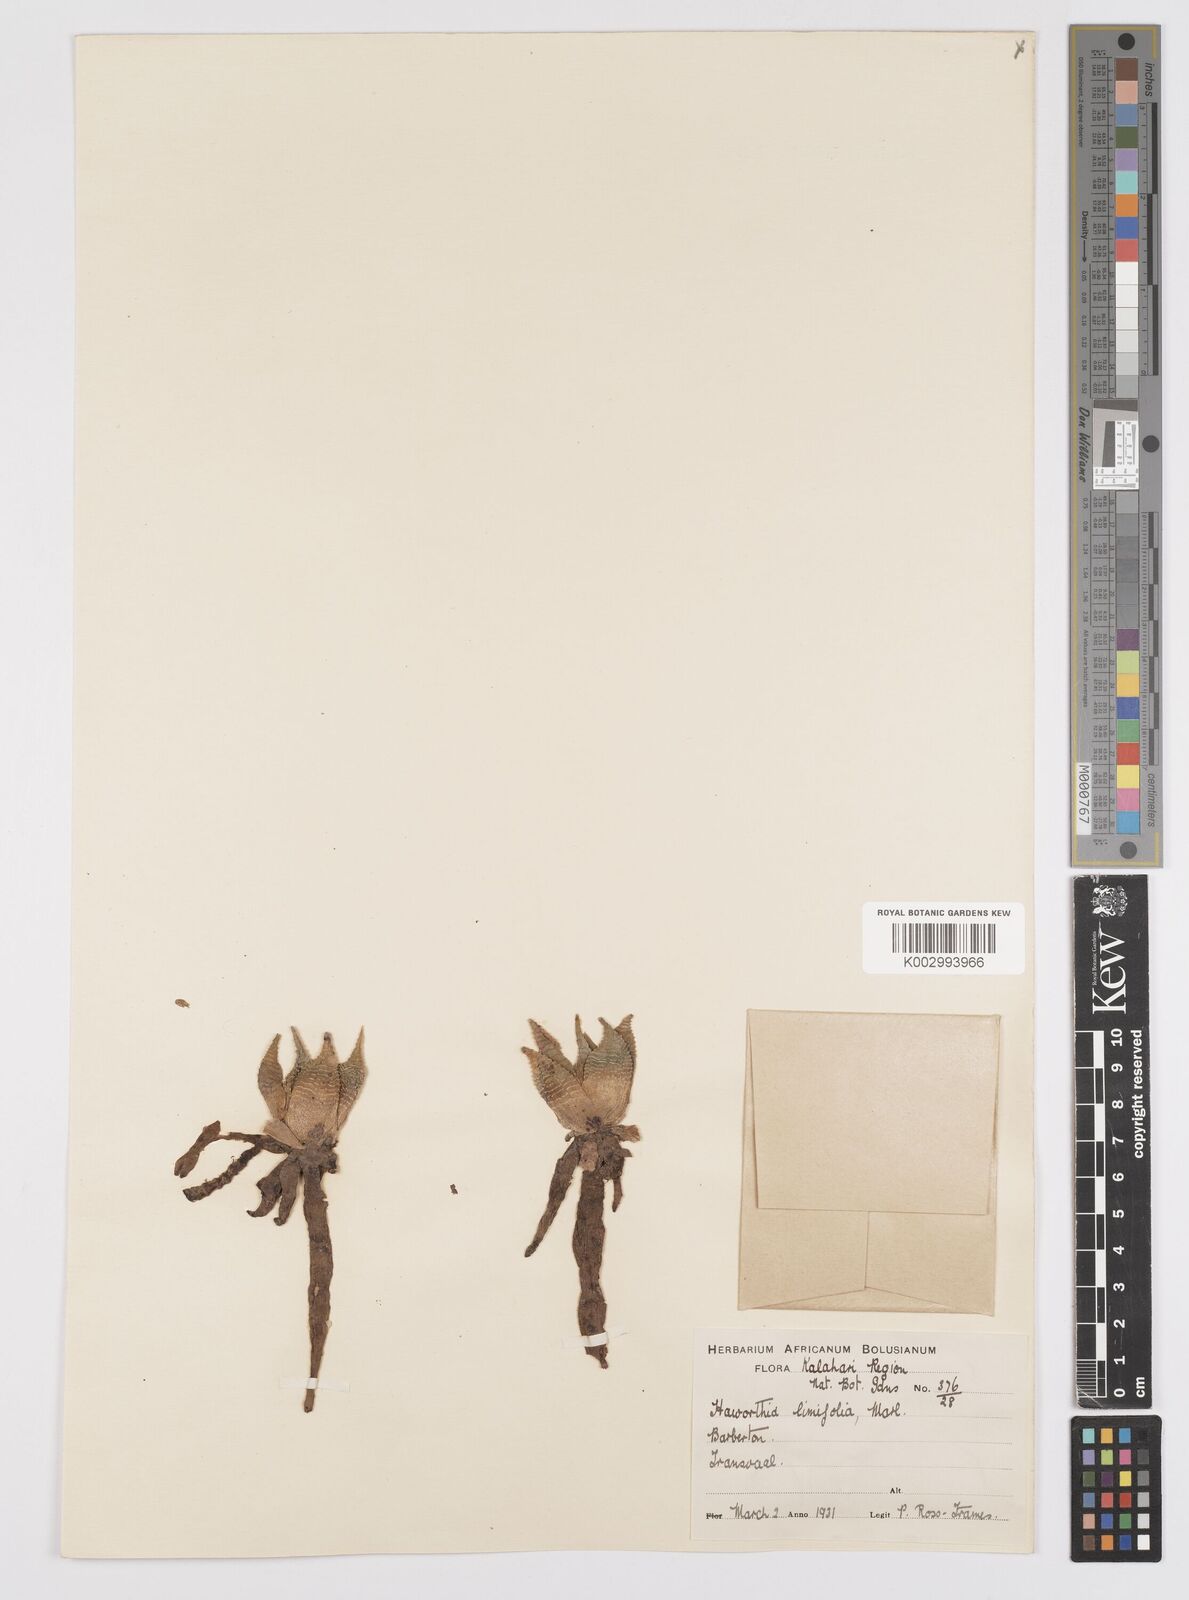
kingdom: Plantae
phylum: Tracheophyta
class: Liliopsida
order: Asparagales
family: Asphodelaceae
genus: Haworthiopsis
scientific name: Haworthiopsis limifolia
